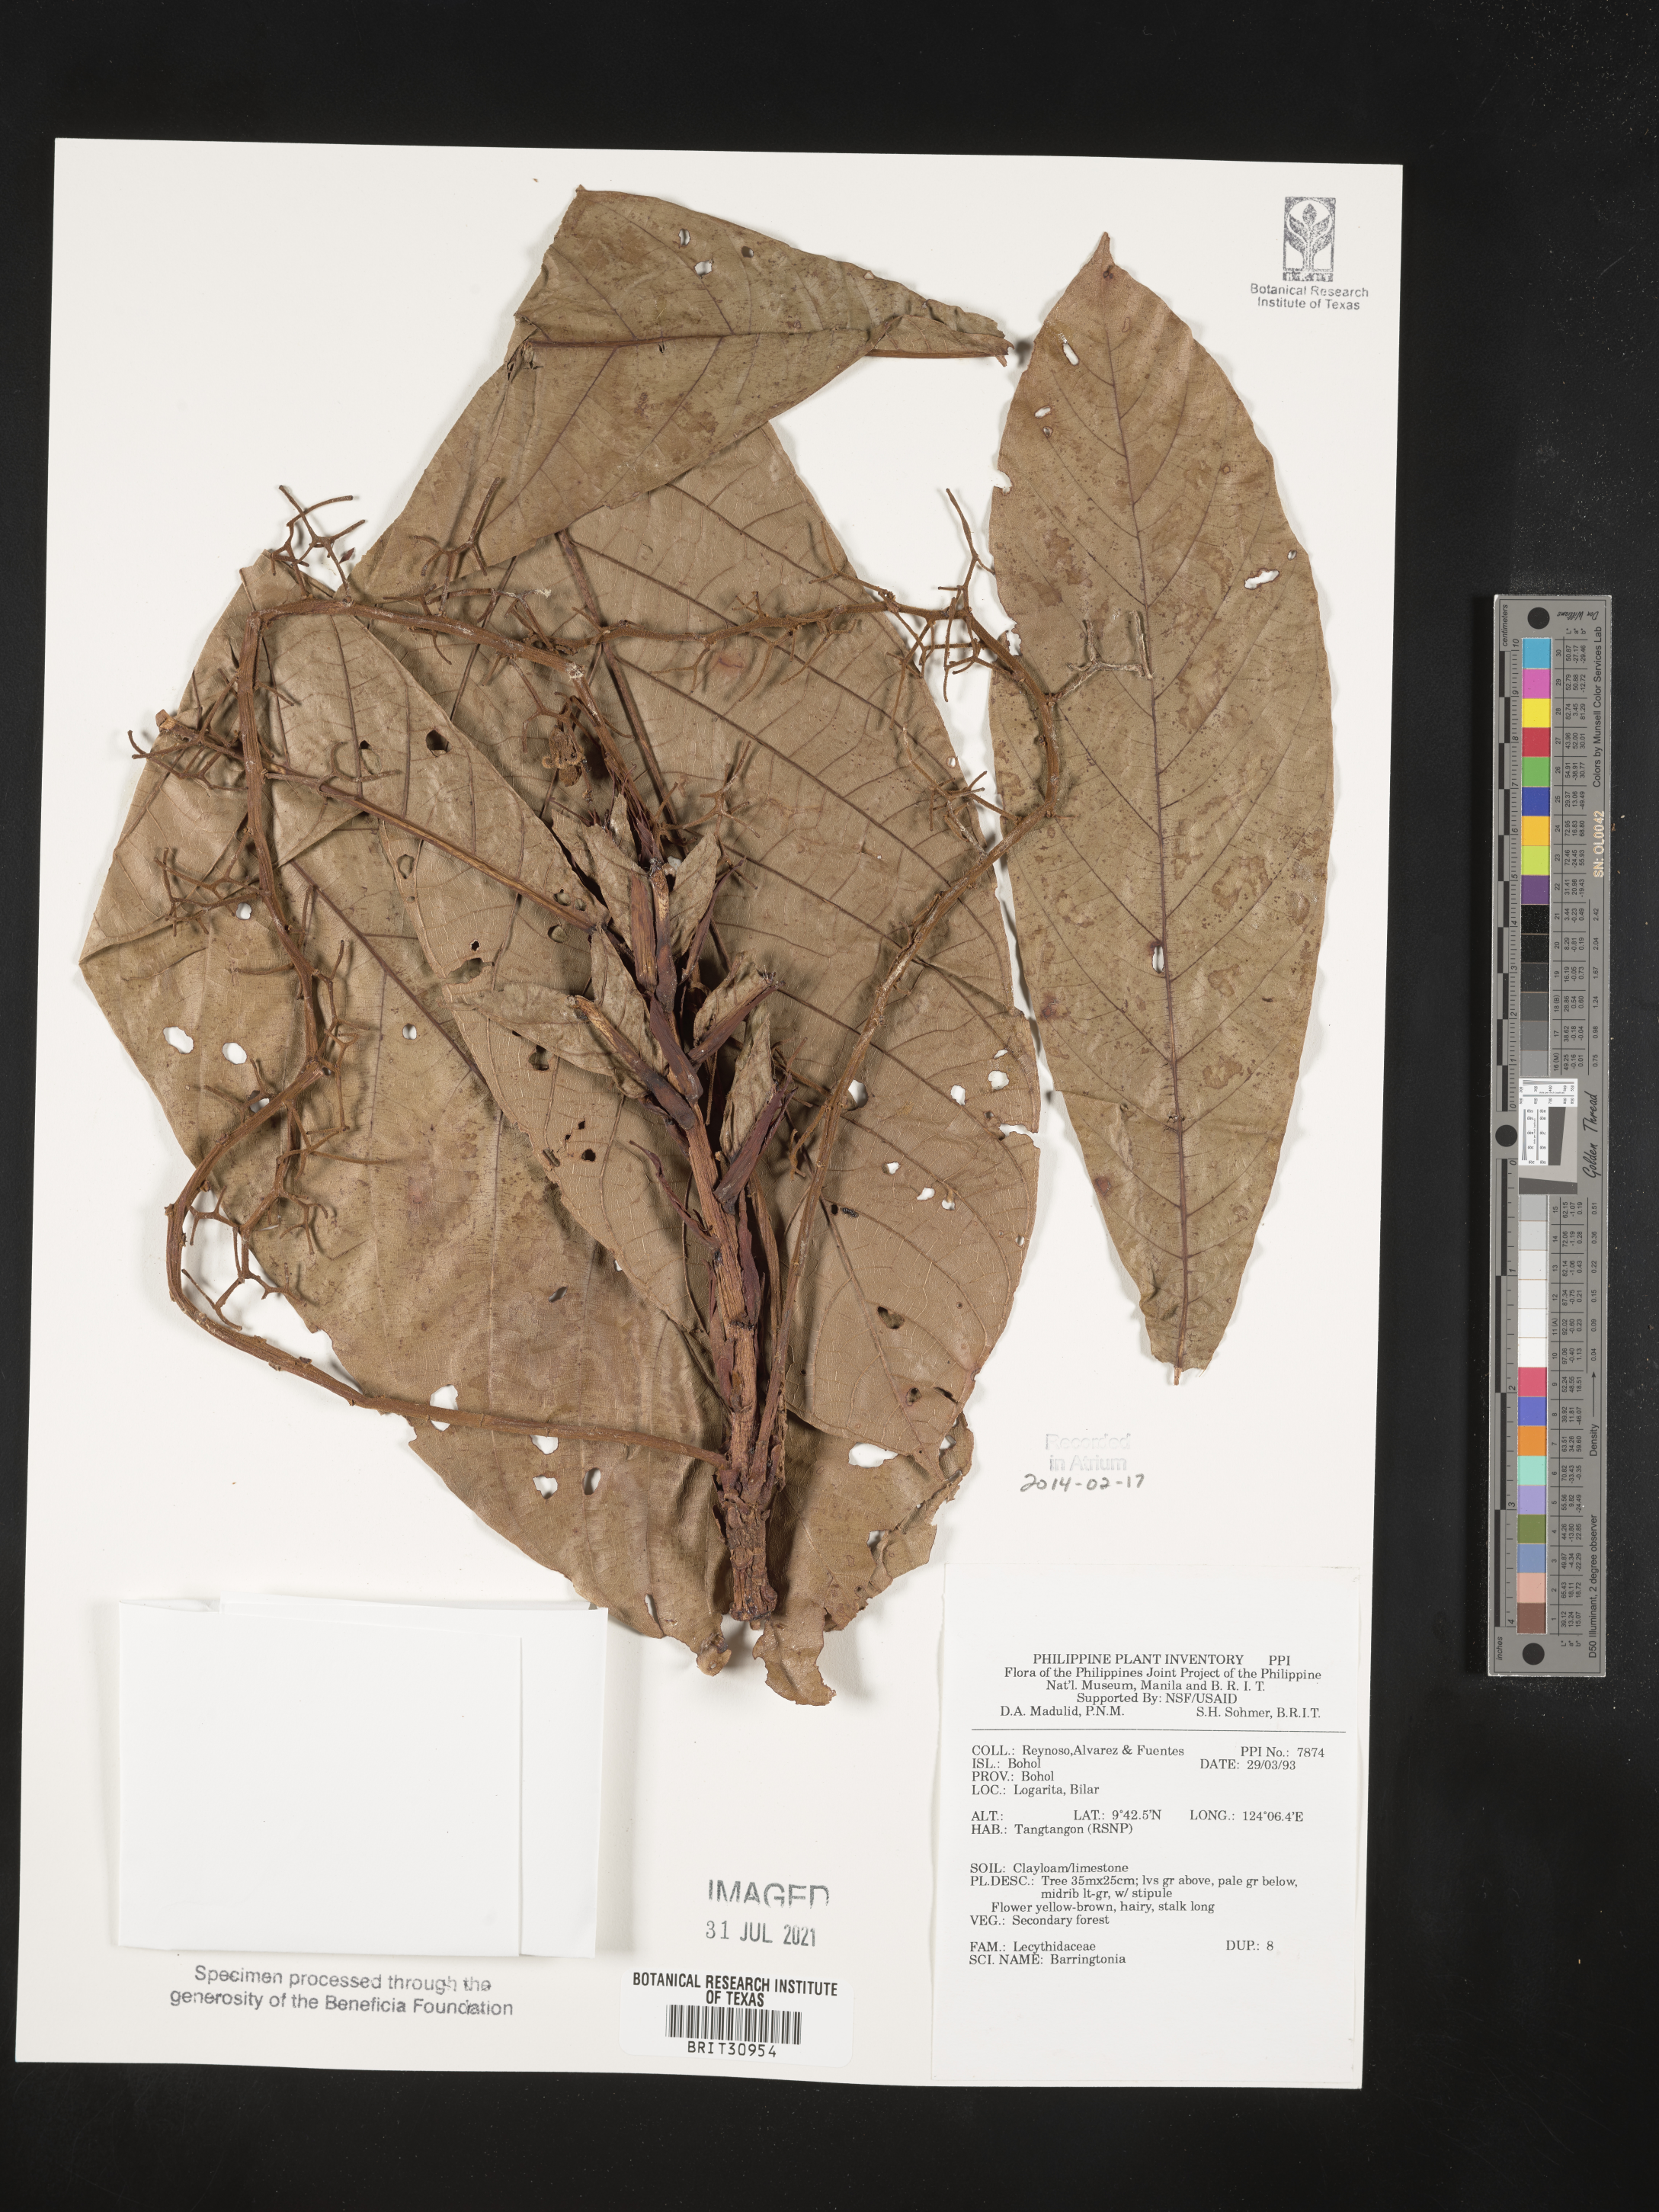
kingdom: Plantae
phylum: Tracheophyta
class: Magnoliopsida
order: Ericales
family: Lecythidaceae
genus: Barringtonia
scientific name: Barringtonia
